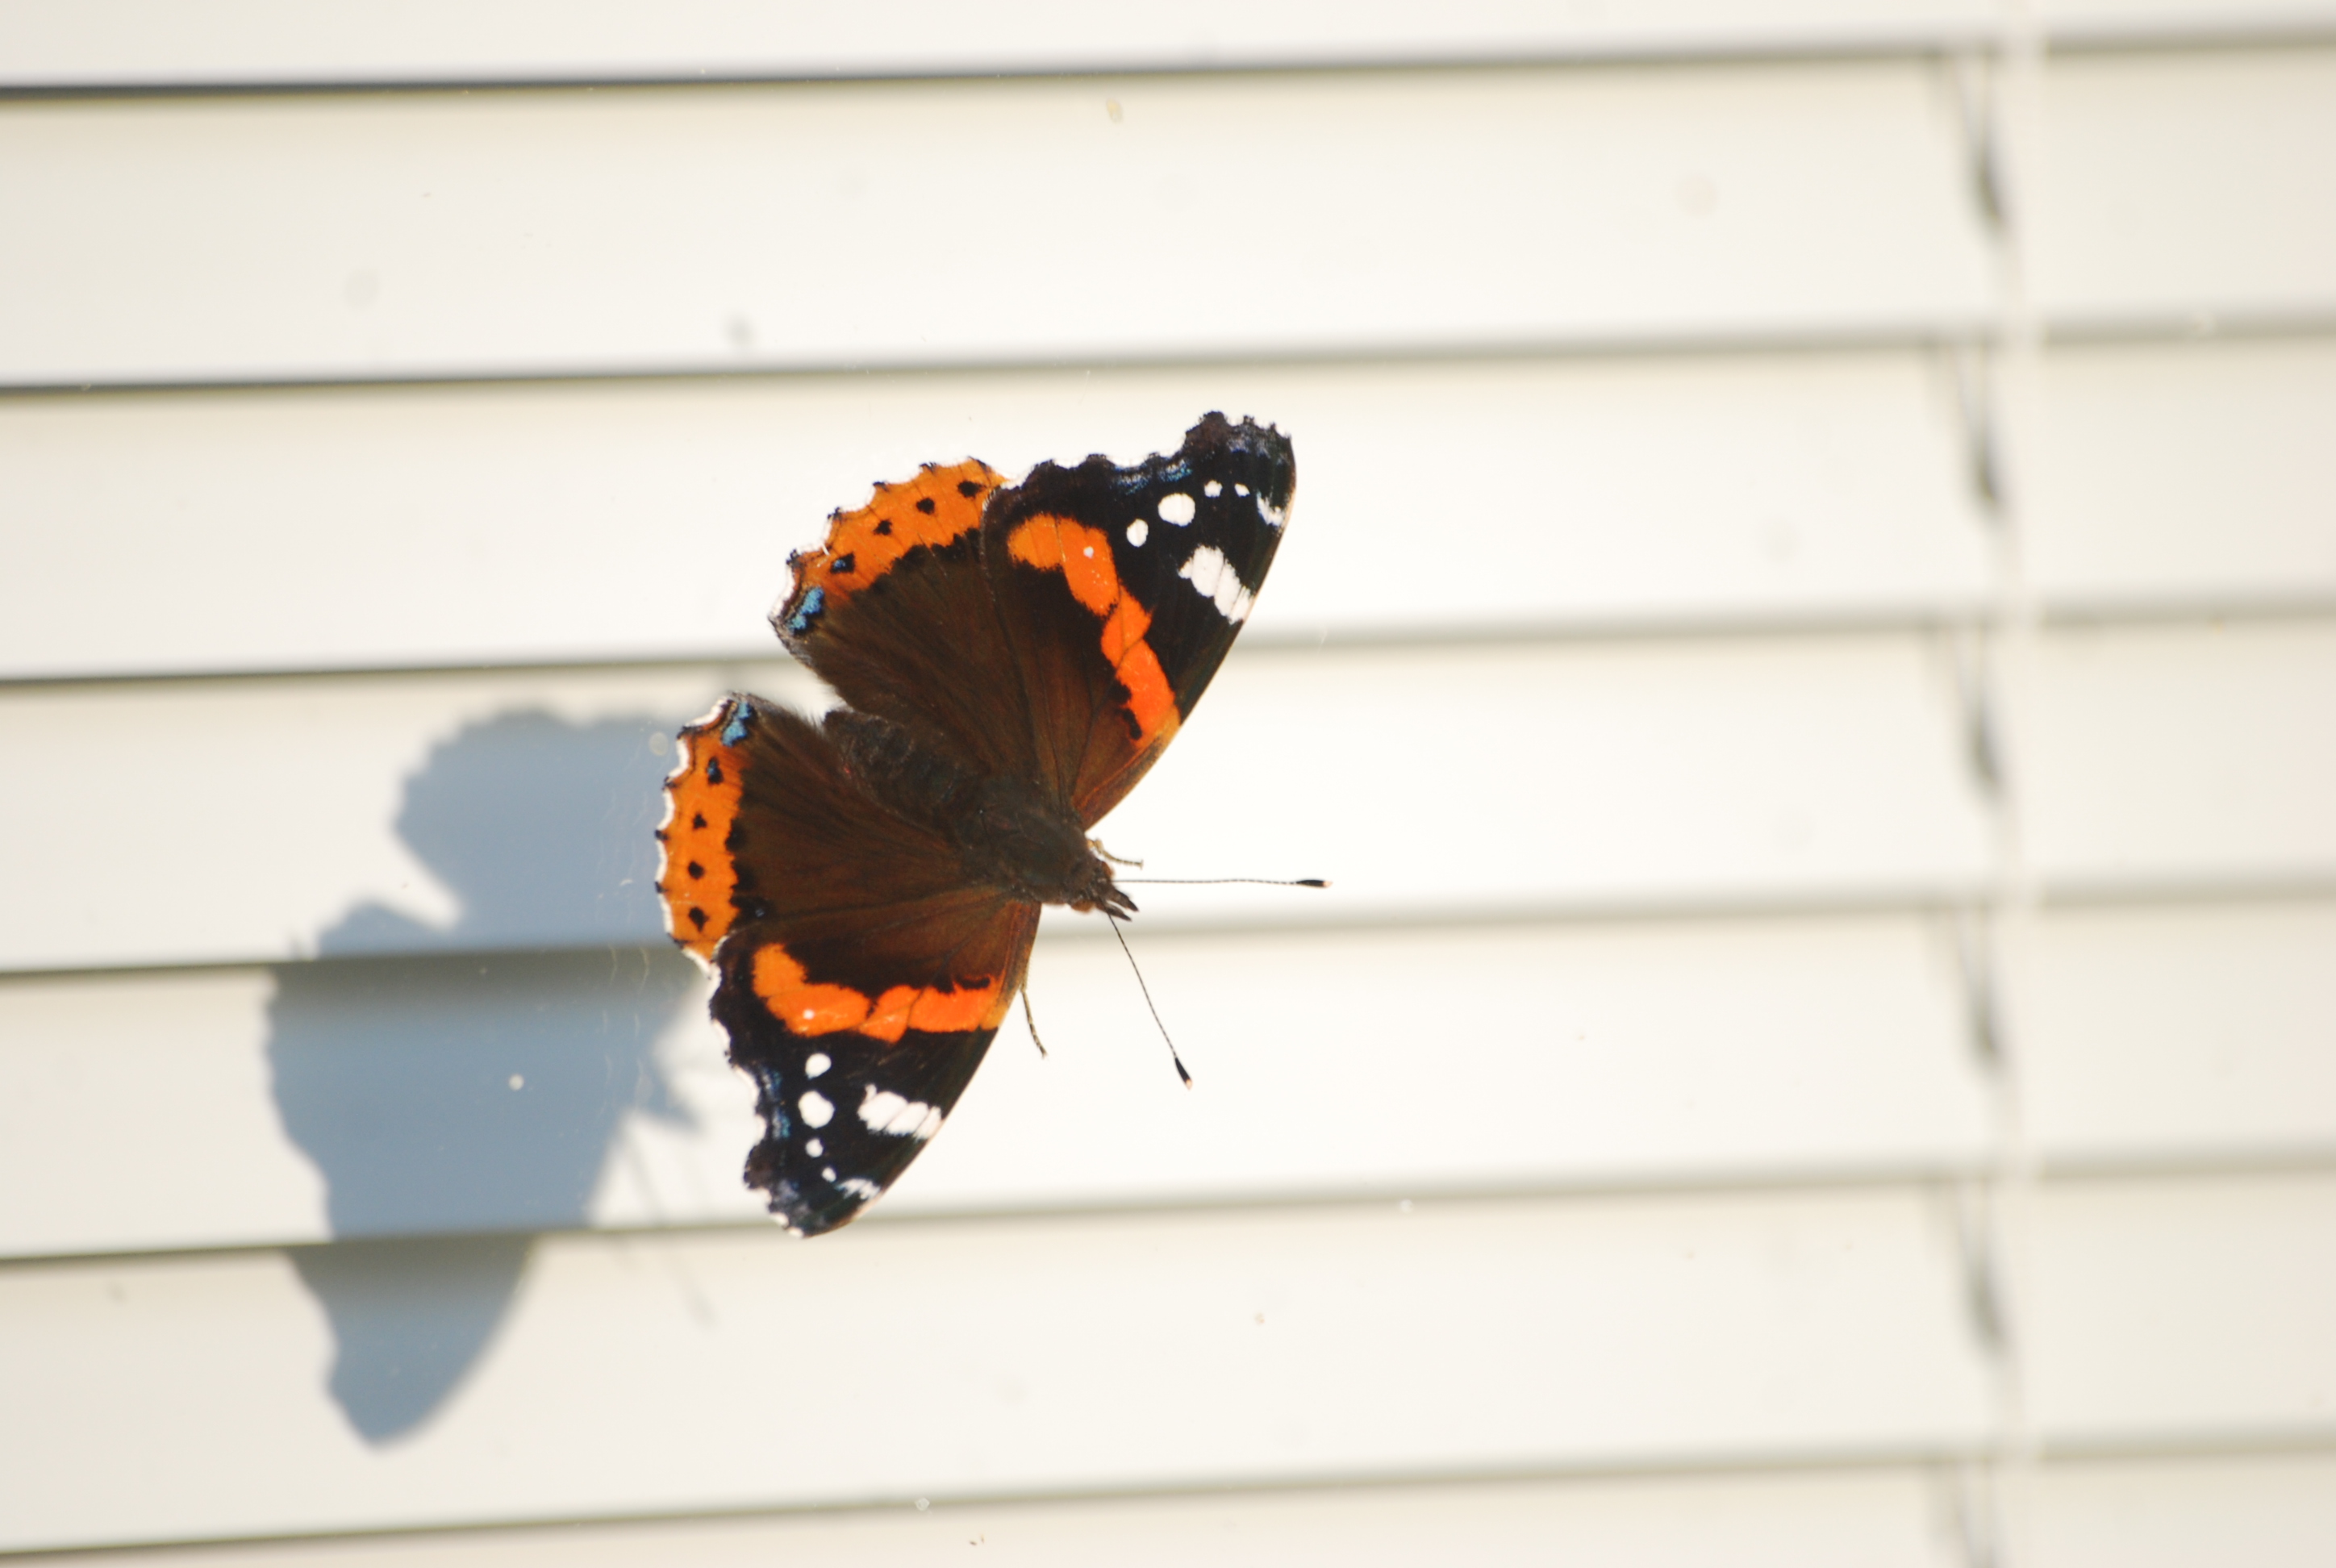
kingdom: Animalia
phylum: Arthropoda
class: Insecta
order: Lepidoptera
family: Nymphalidae
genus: Vanessa
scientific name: Vanessa atalanta
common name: Red admiral
